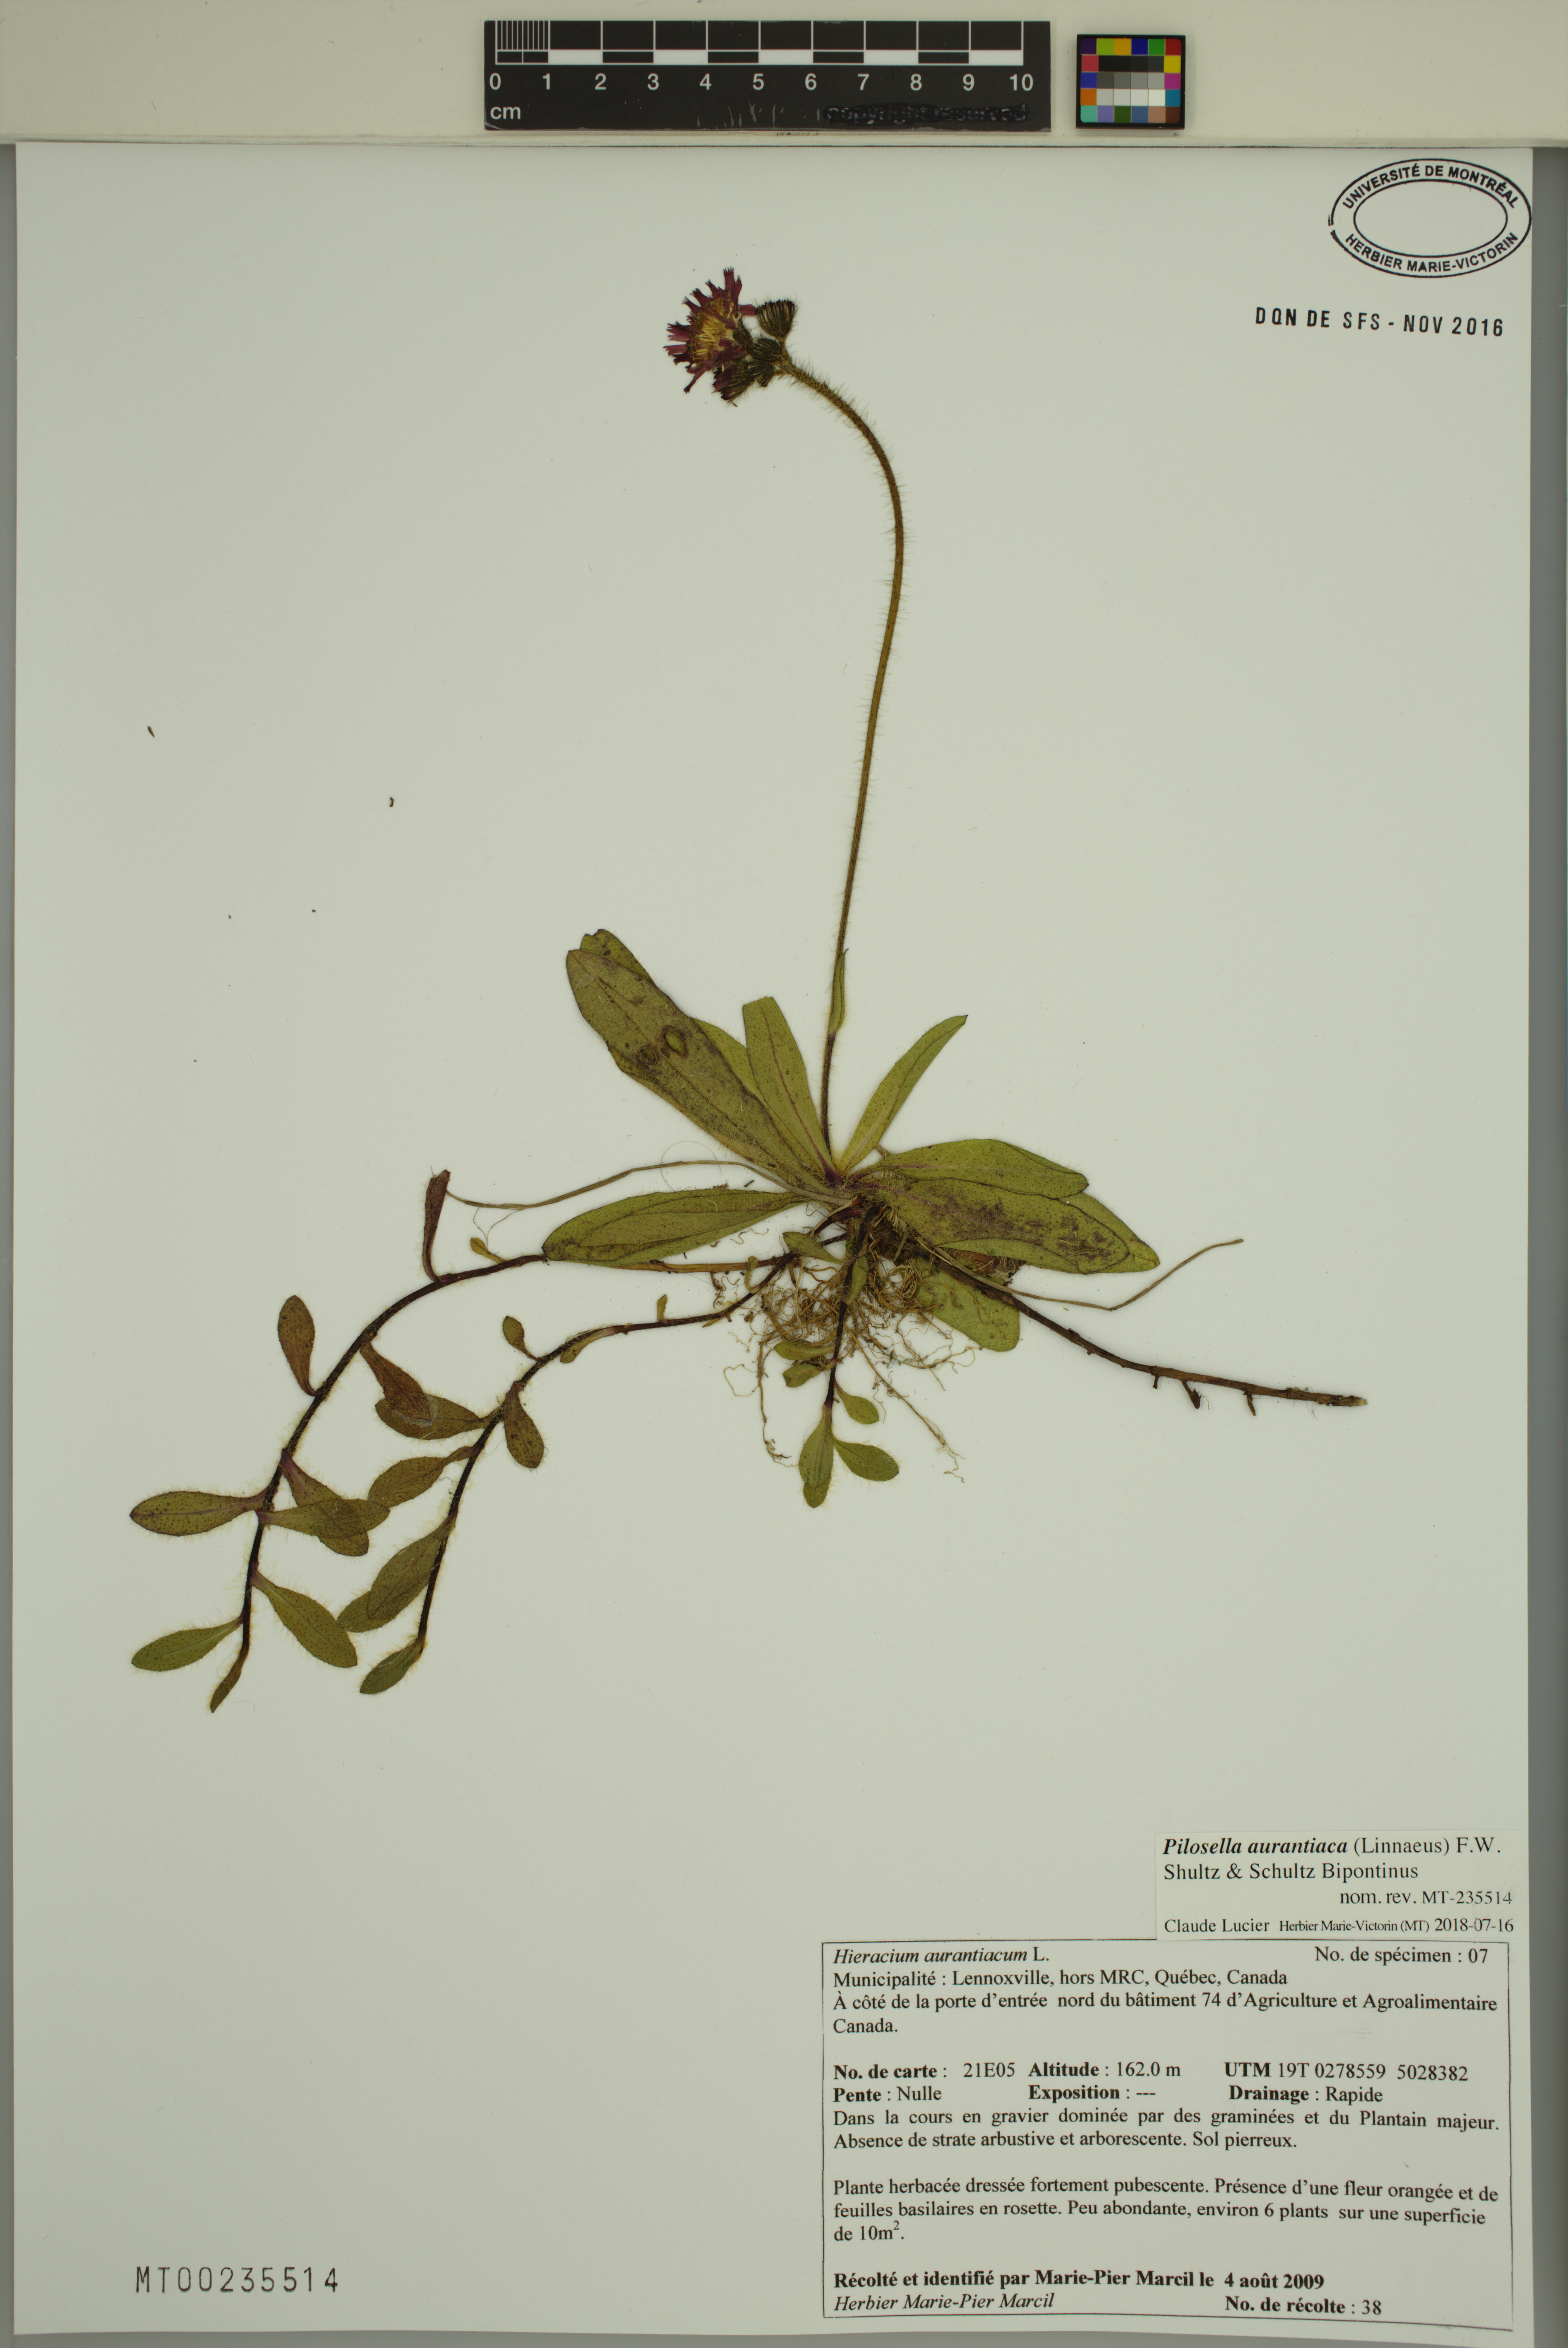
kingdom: Plantae
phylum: Tracheophyta
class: Magnoliopsida
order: Asterales
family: Asteraceae
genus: Pilosella
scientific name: Pilosella aurantiaca
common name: Fox-and-cubs
